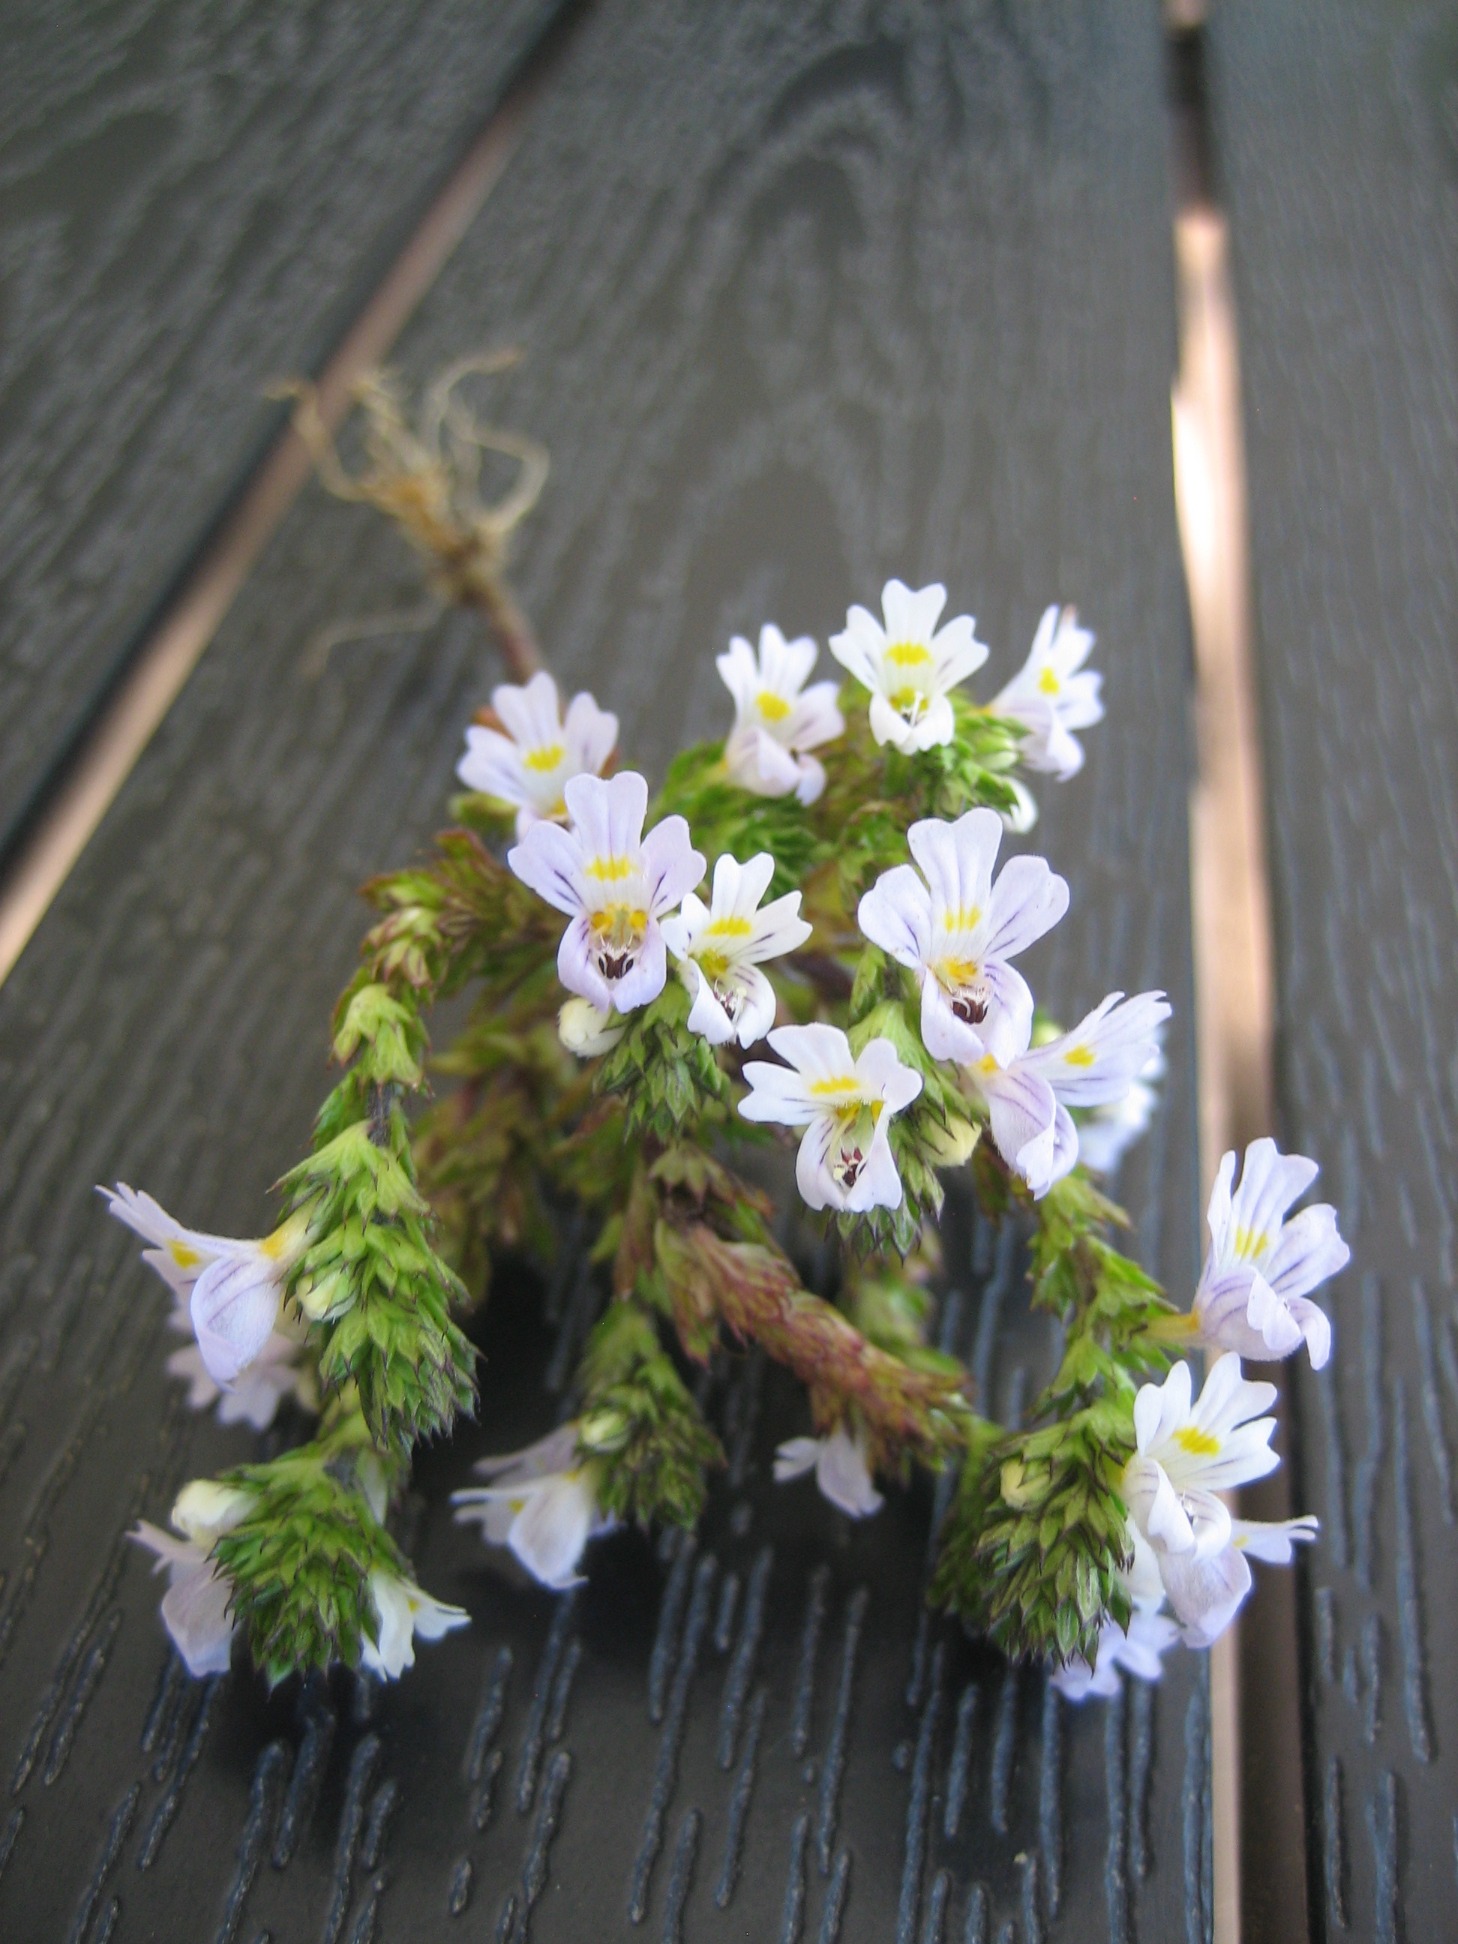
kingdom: Plantae
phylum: Tracheophyta
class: Magnoliopsida
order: Lamiales
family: Orobanchaceae
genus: Euphrasia
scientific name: Euphrasia stricta
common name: Spids øjentrøst
